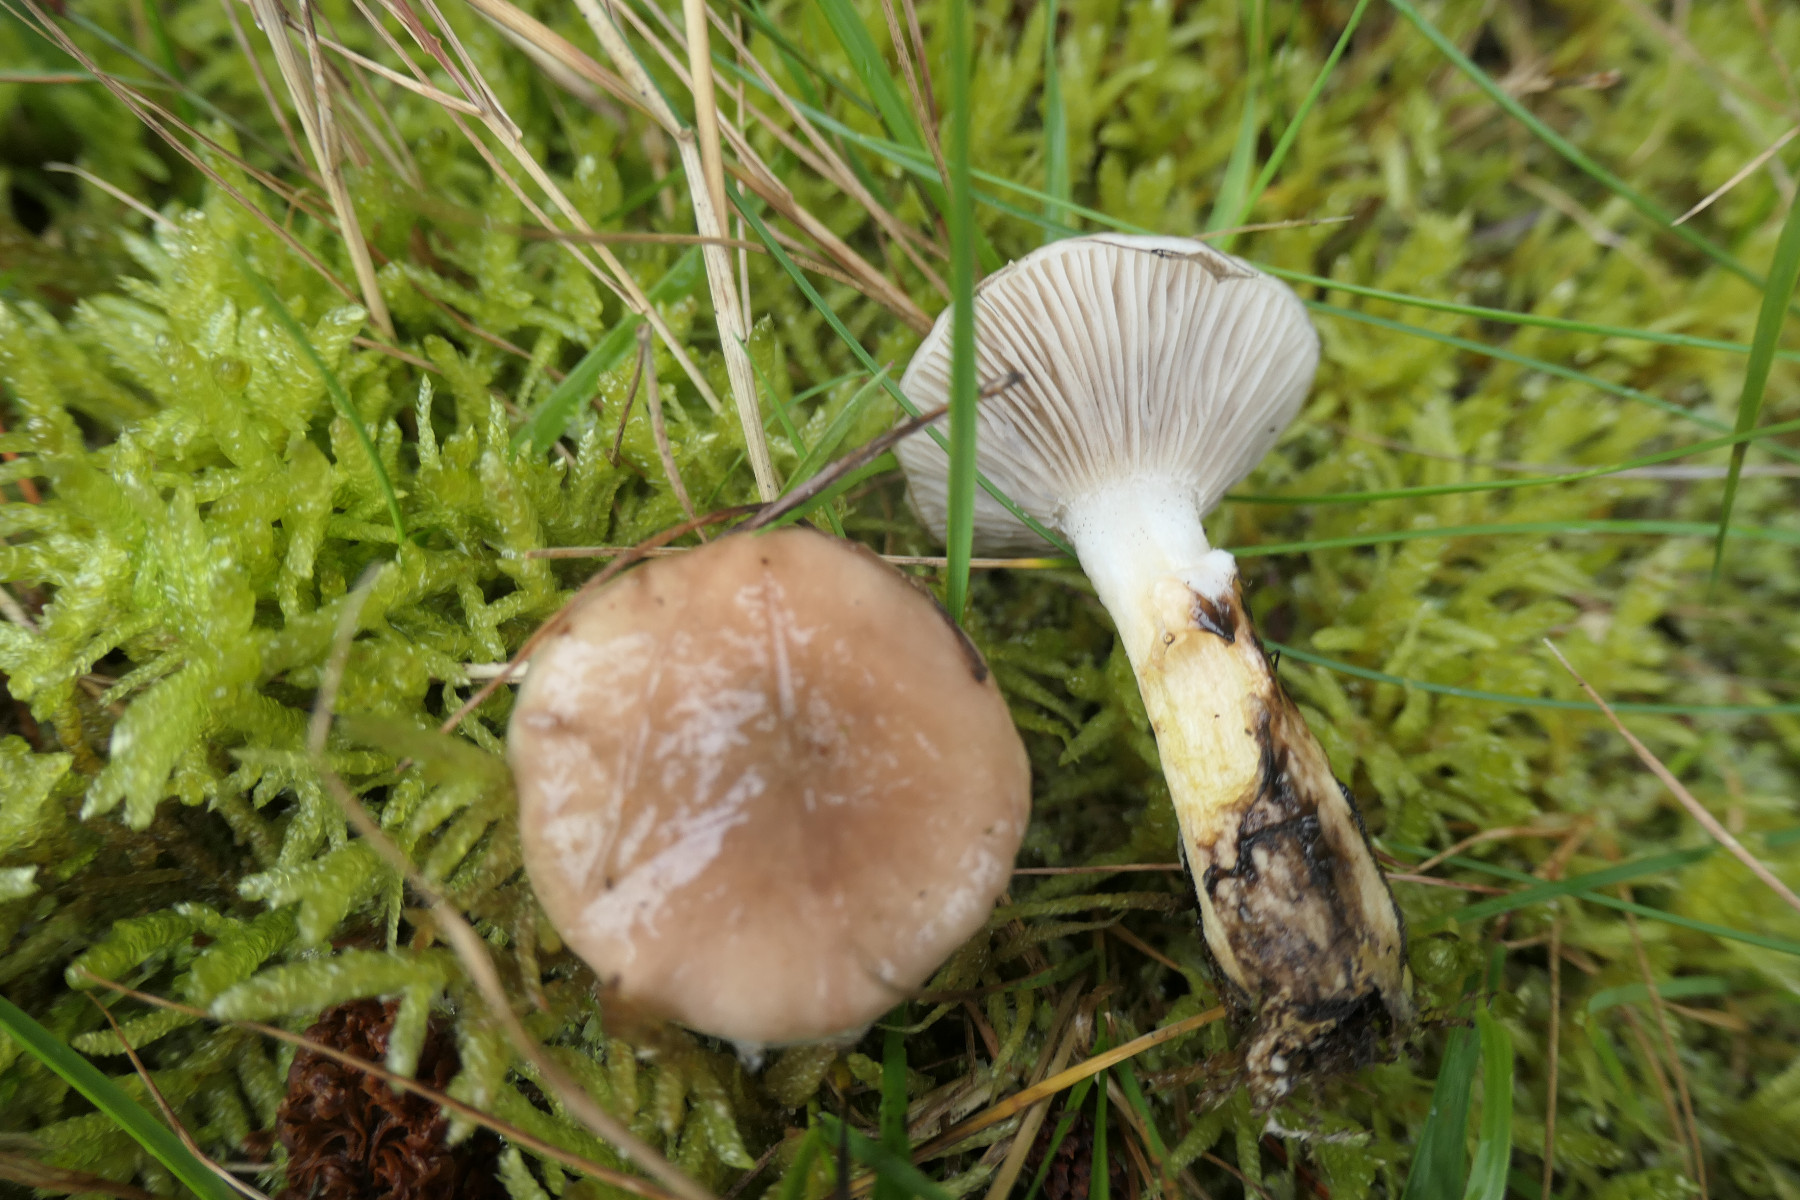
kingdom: Fungi
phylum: Basidiomycota
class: Agaricomycetes
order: Boletales
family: Gomphidiaceae
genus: Gomphidius
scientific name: Gomphidius glutinosus
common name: grå slimslør
